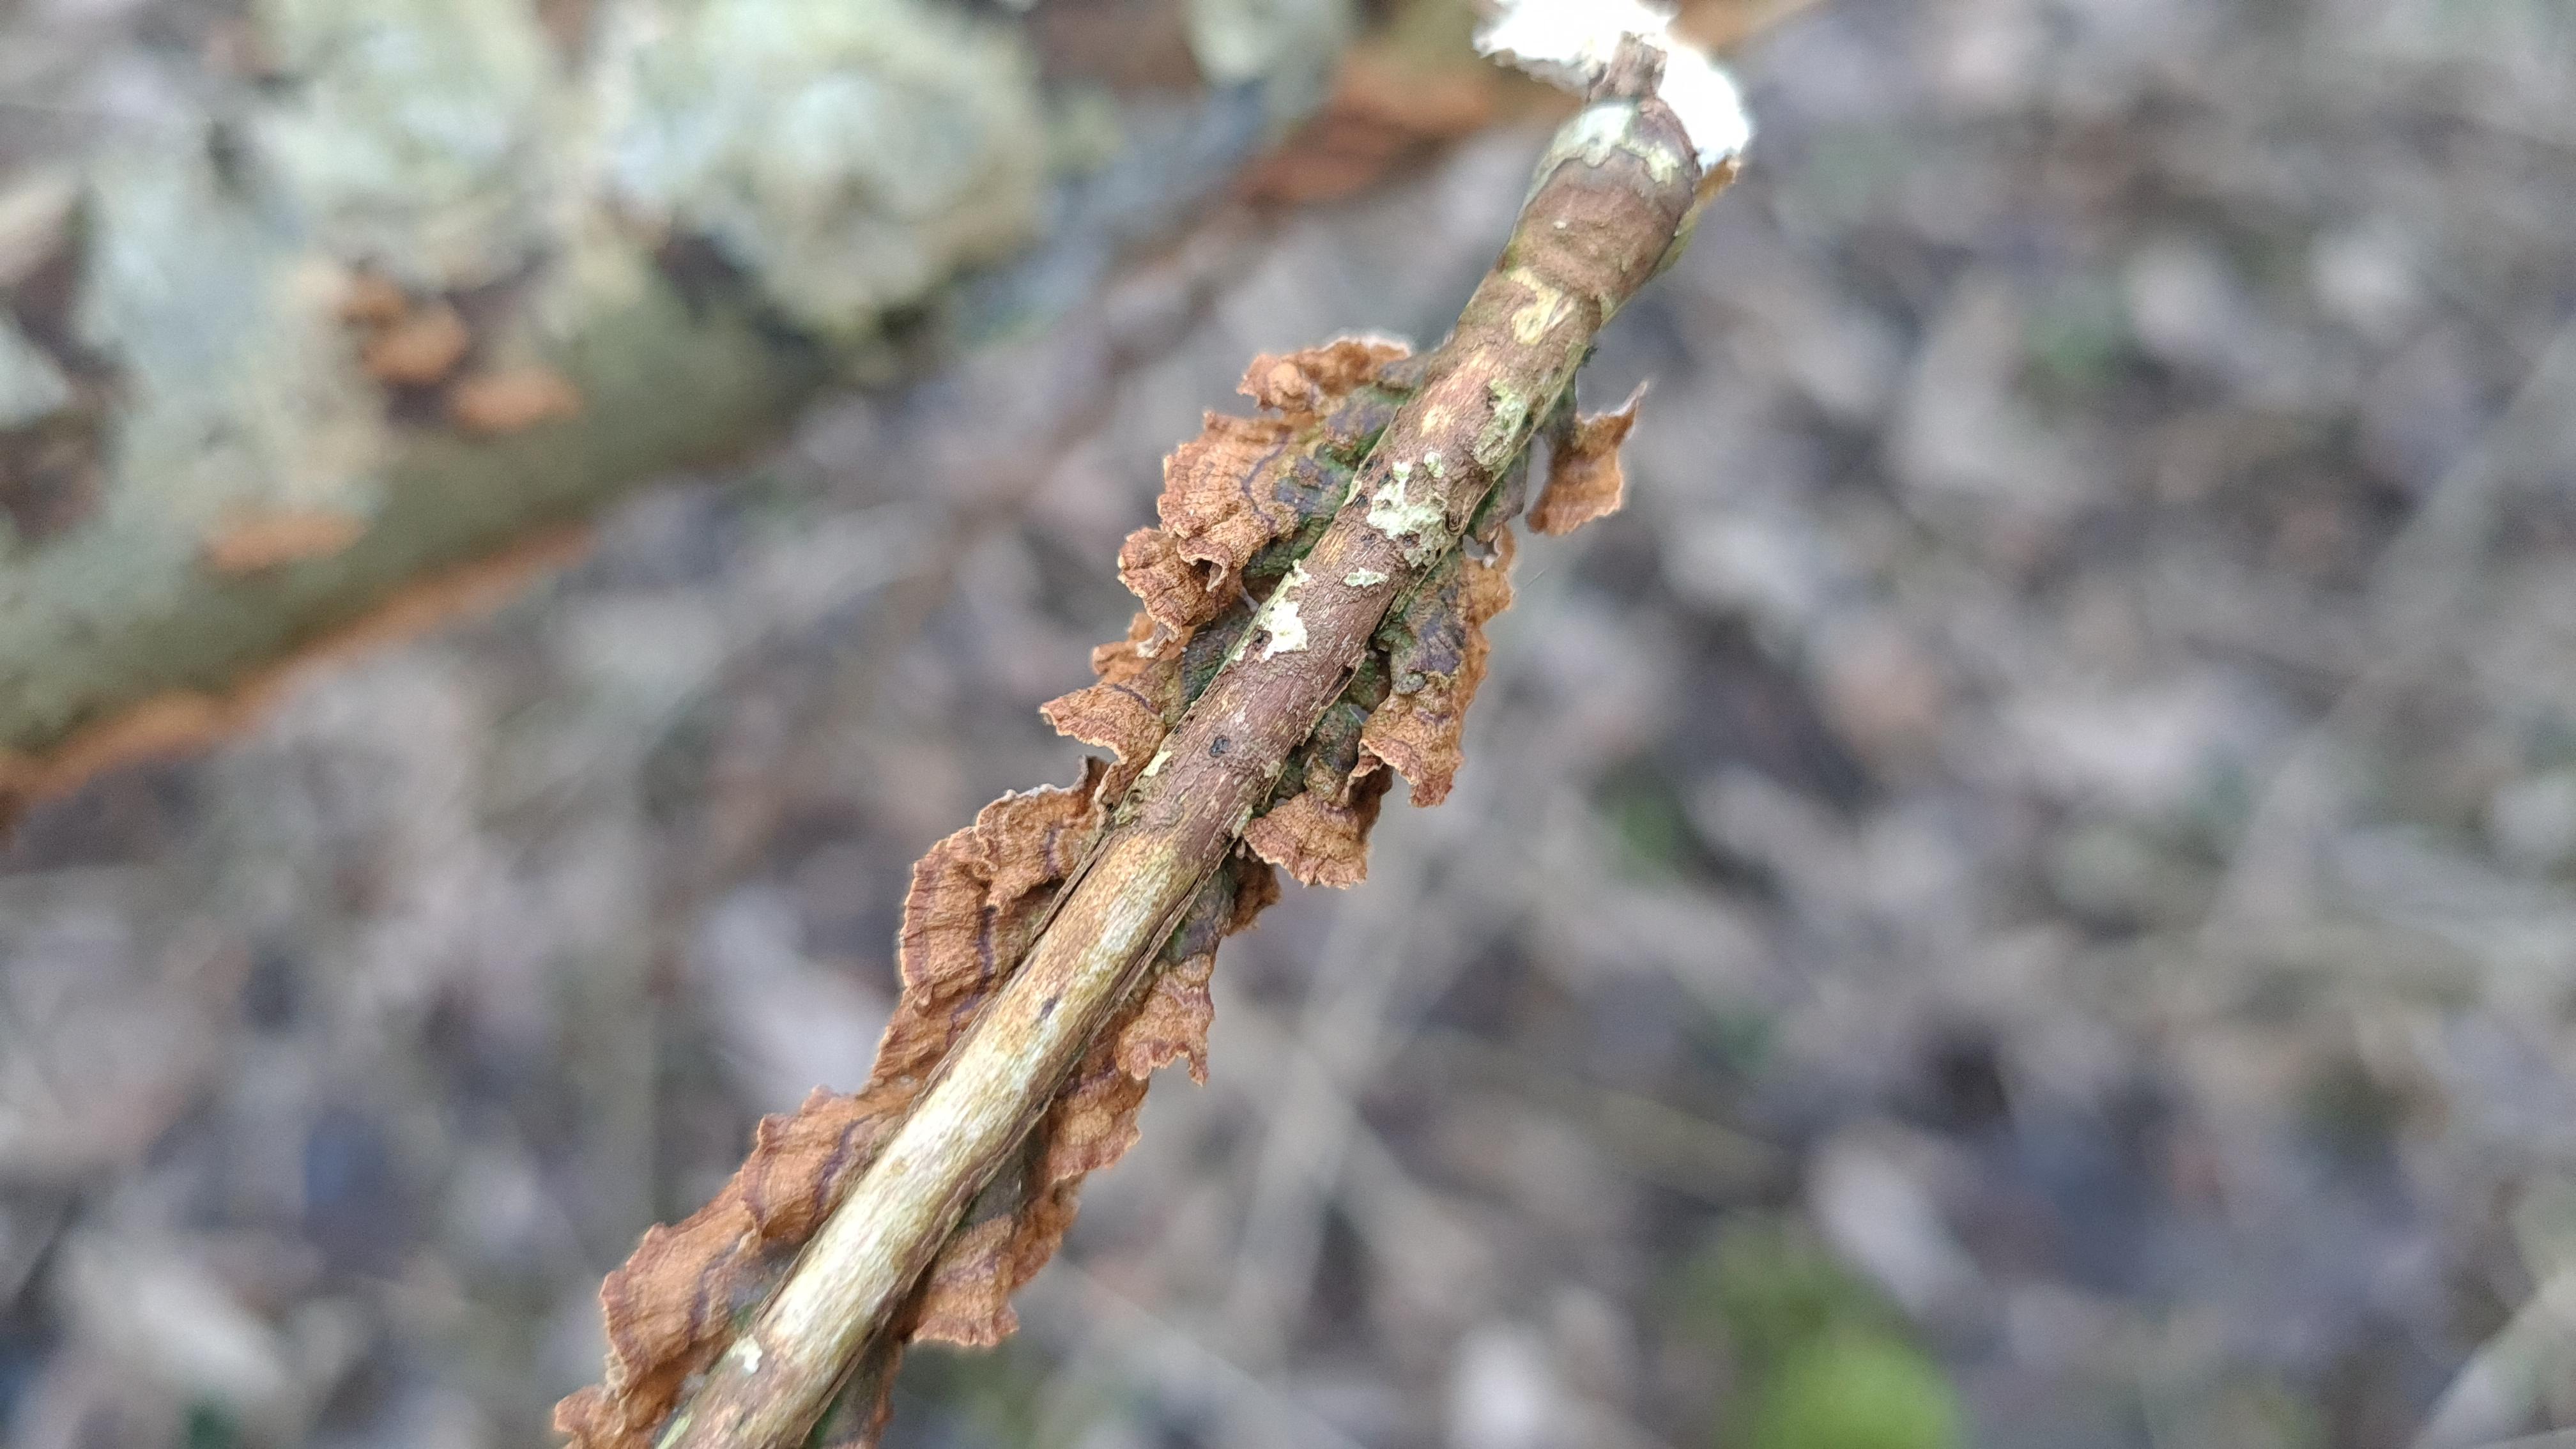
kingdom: Fungi
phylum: Basidiomycota
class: Agaricomycetes
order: Hymenochaetales
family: Hymenochaetaceae
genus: Hydnoporia
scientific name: Hydnoporia tabacina
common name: tobaksbrun ruslædersvamp
